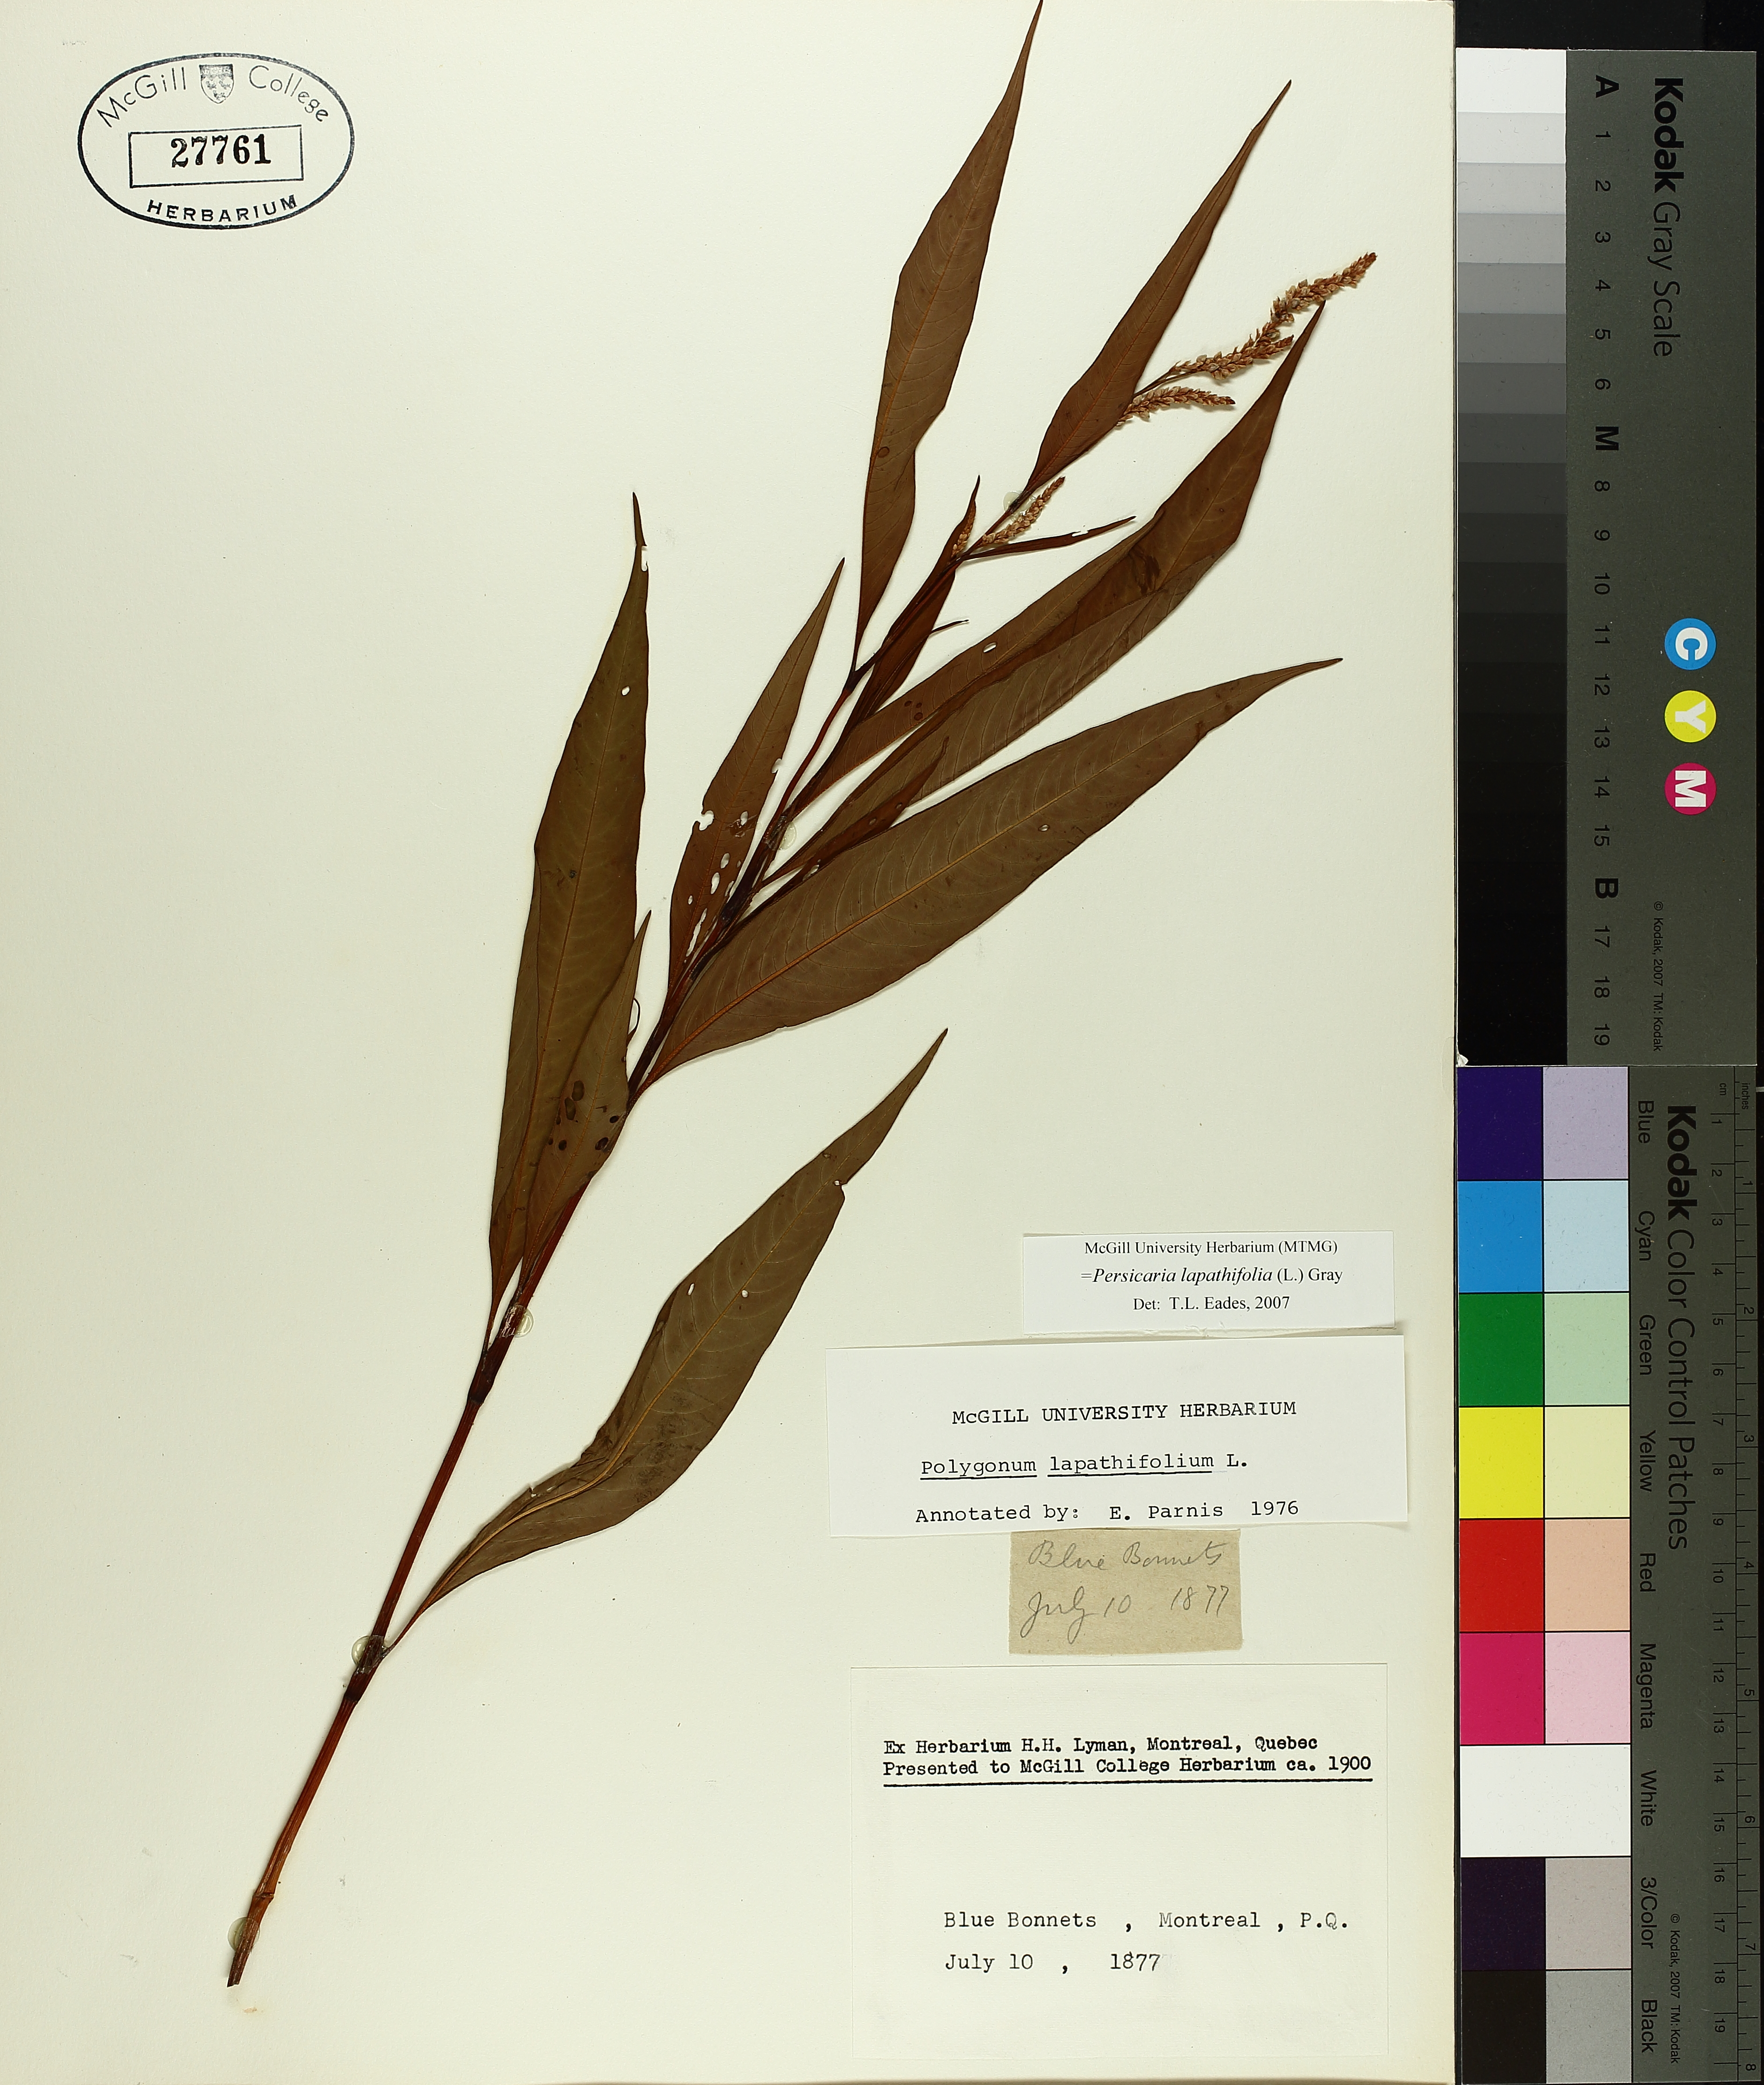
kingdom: Plantae
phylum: Tracheophyta
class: Magnoliopsida
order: Caryophyllales
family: Polygonaceae
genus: Persicaria
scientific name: Persicaria lapathifolia
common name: Curlytop knotweed
